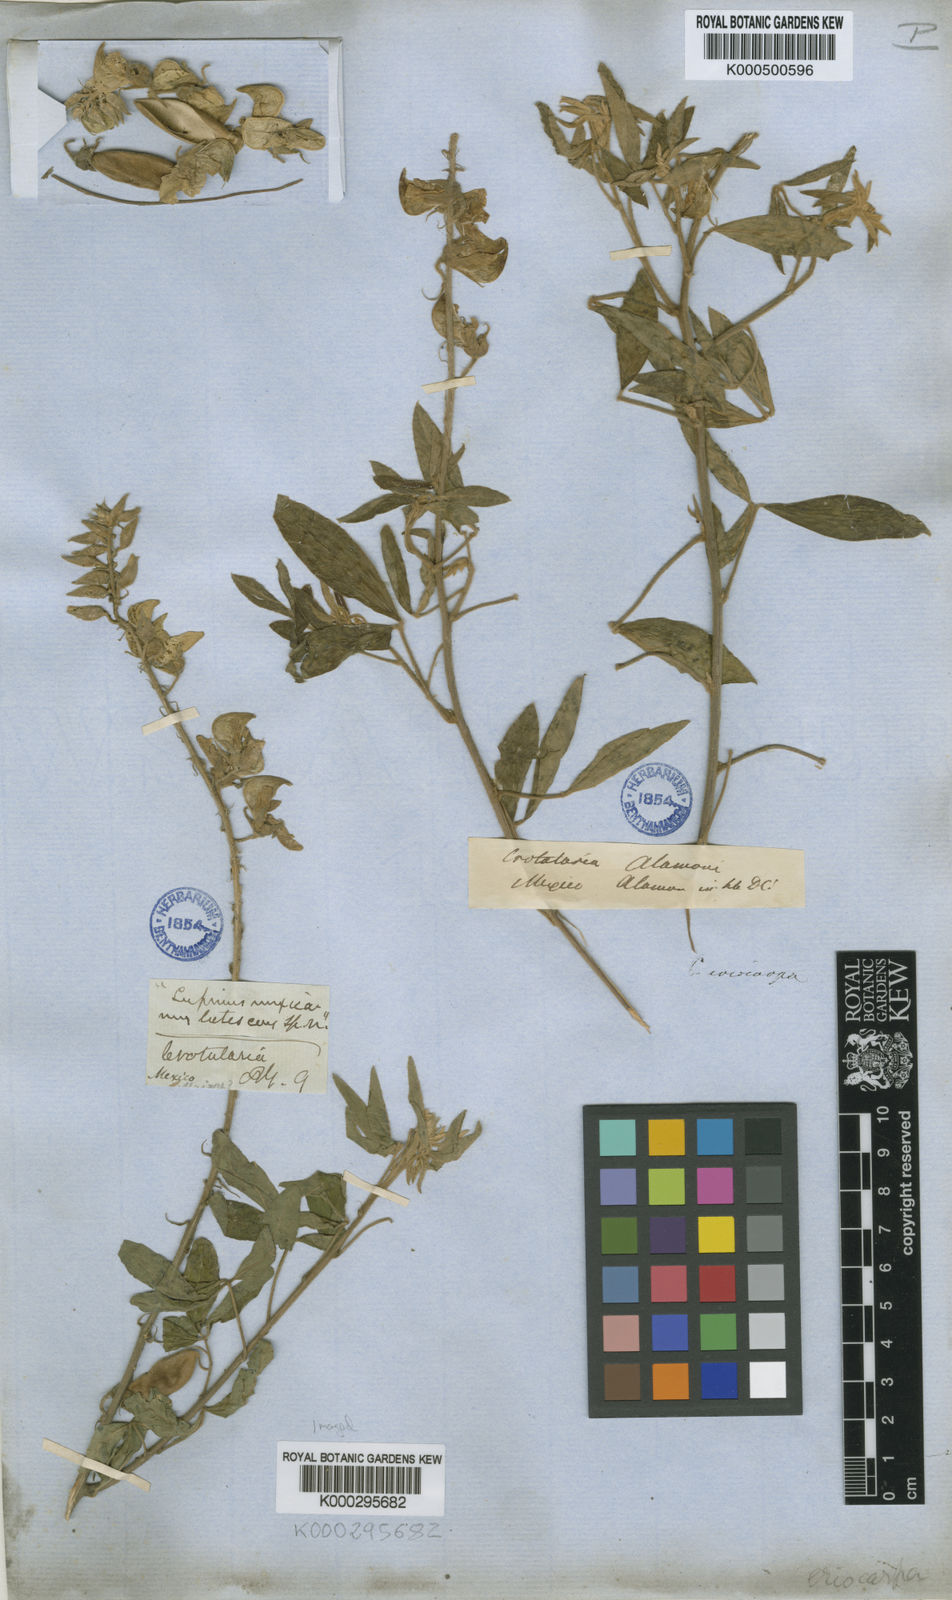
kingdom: Plantae
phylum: Tracheophyta
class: Magnoliopsida
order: Fabales
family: Fabaceae
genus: Crotalaria
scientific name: Crotalaria eriocarpa
